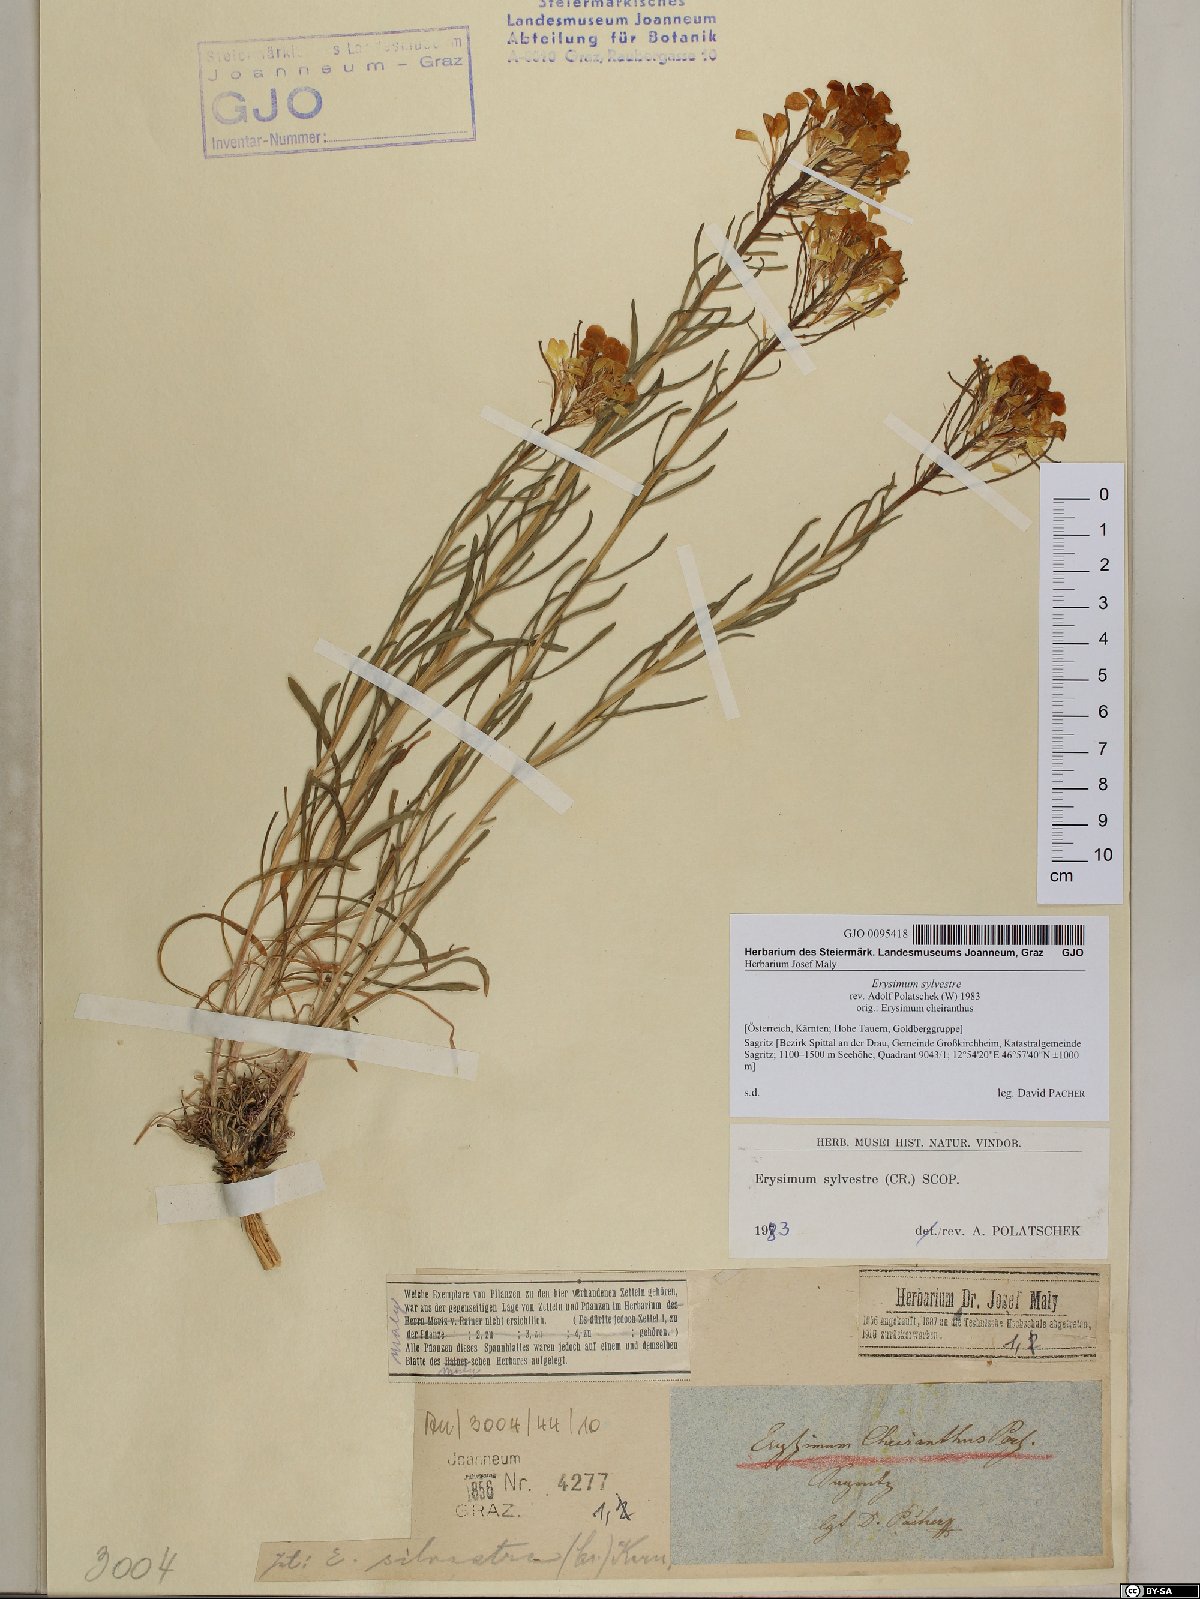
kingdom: Plantae
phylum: Tracheophyta
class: Magnoliopsida
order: Brassicales
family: Brassicaceae
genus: Erysimum
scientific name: Erysimum sylvestre
